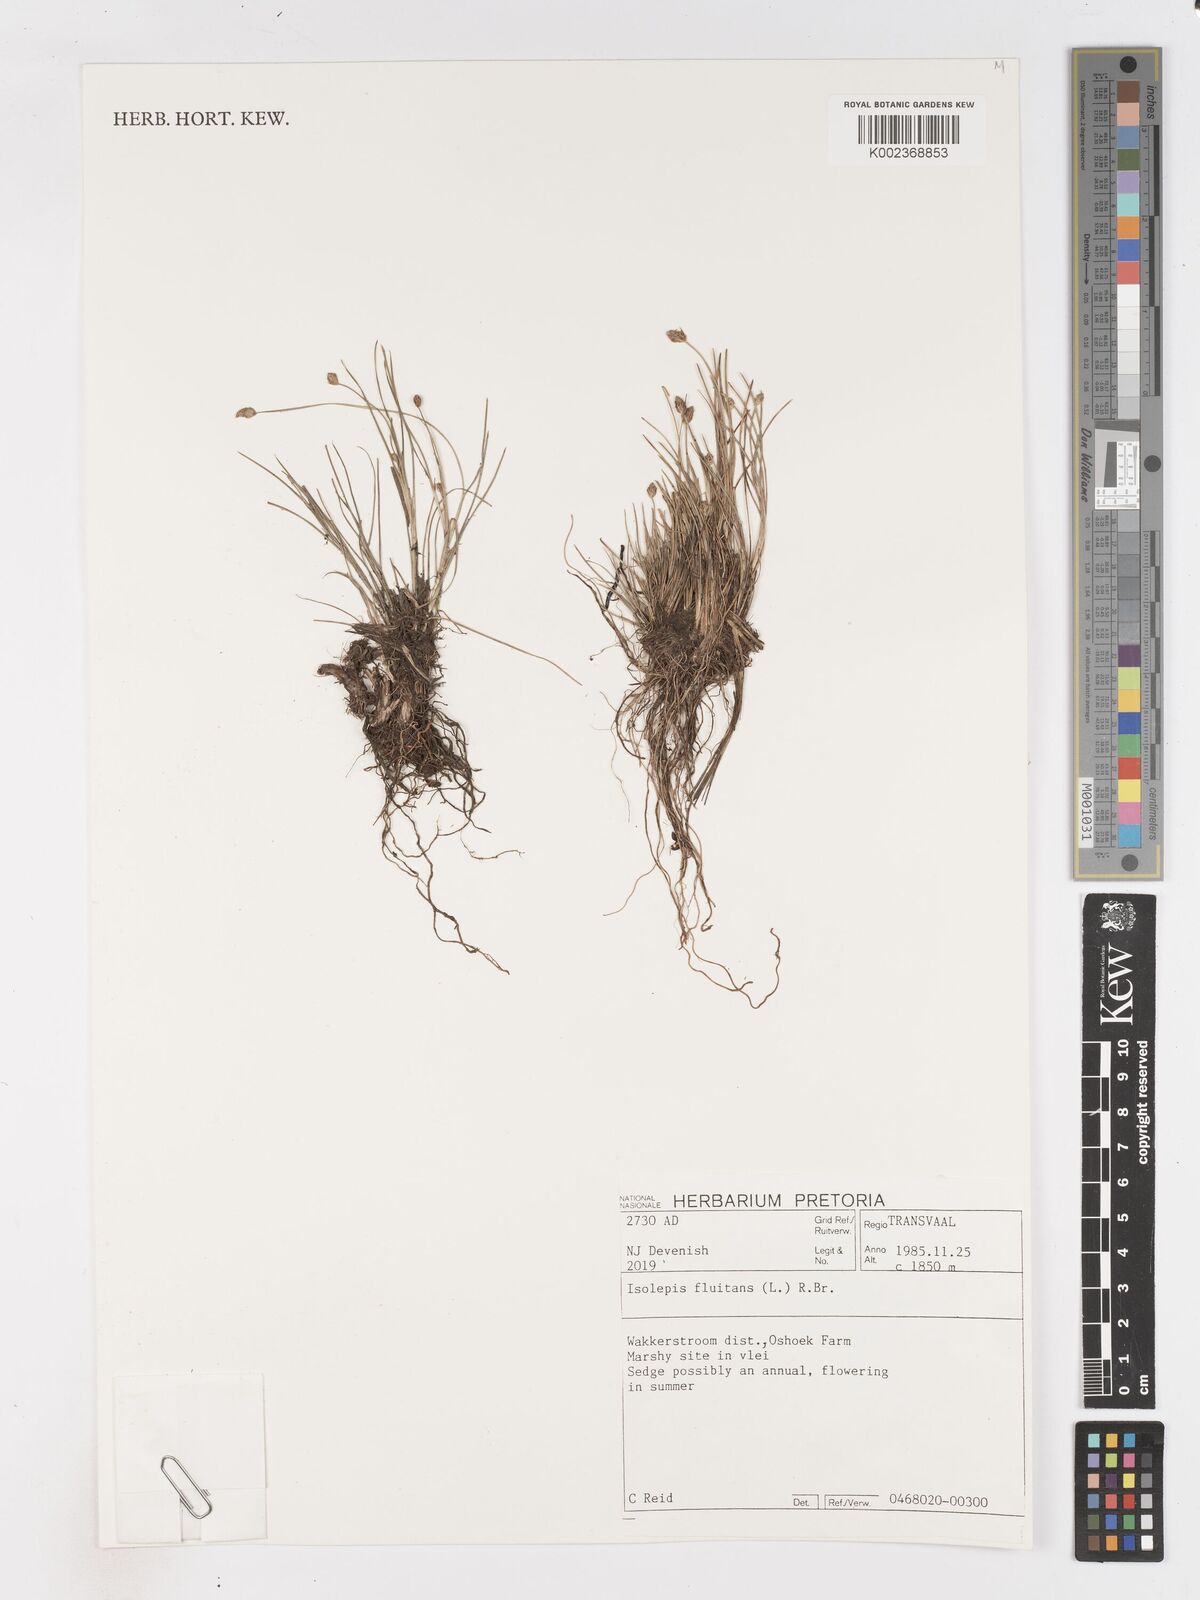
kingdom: Plantae
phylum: Tracheophyta
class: Liliopsida
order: Poales
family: Cyperaceae
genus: Isolepis
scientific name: Isolepis fluitans
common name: Floating club-rush
